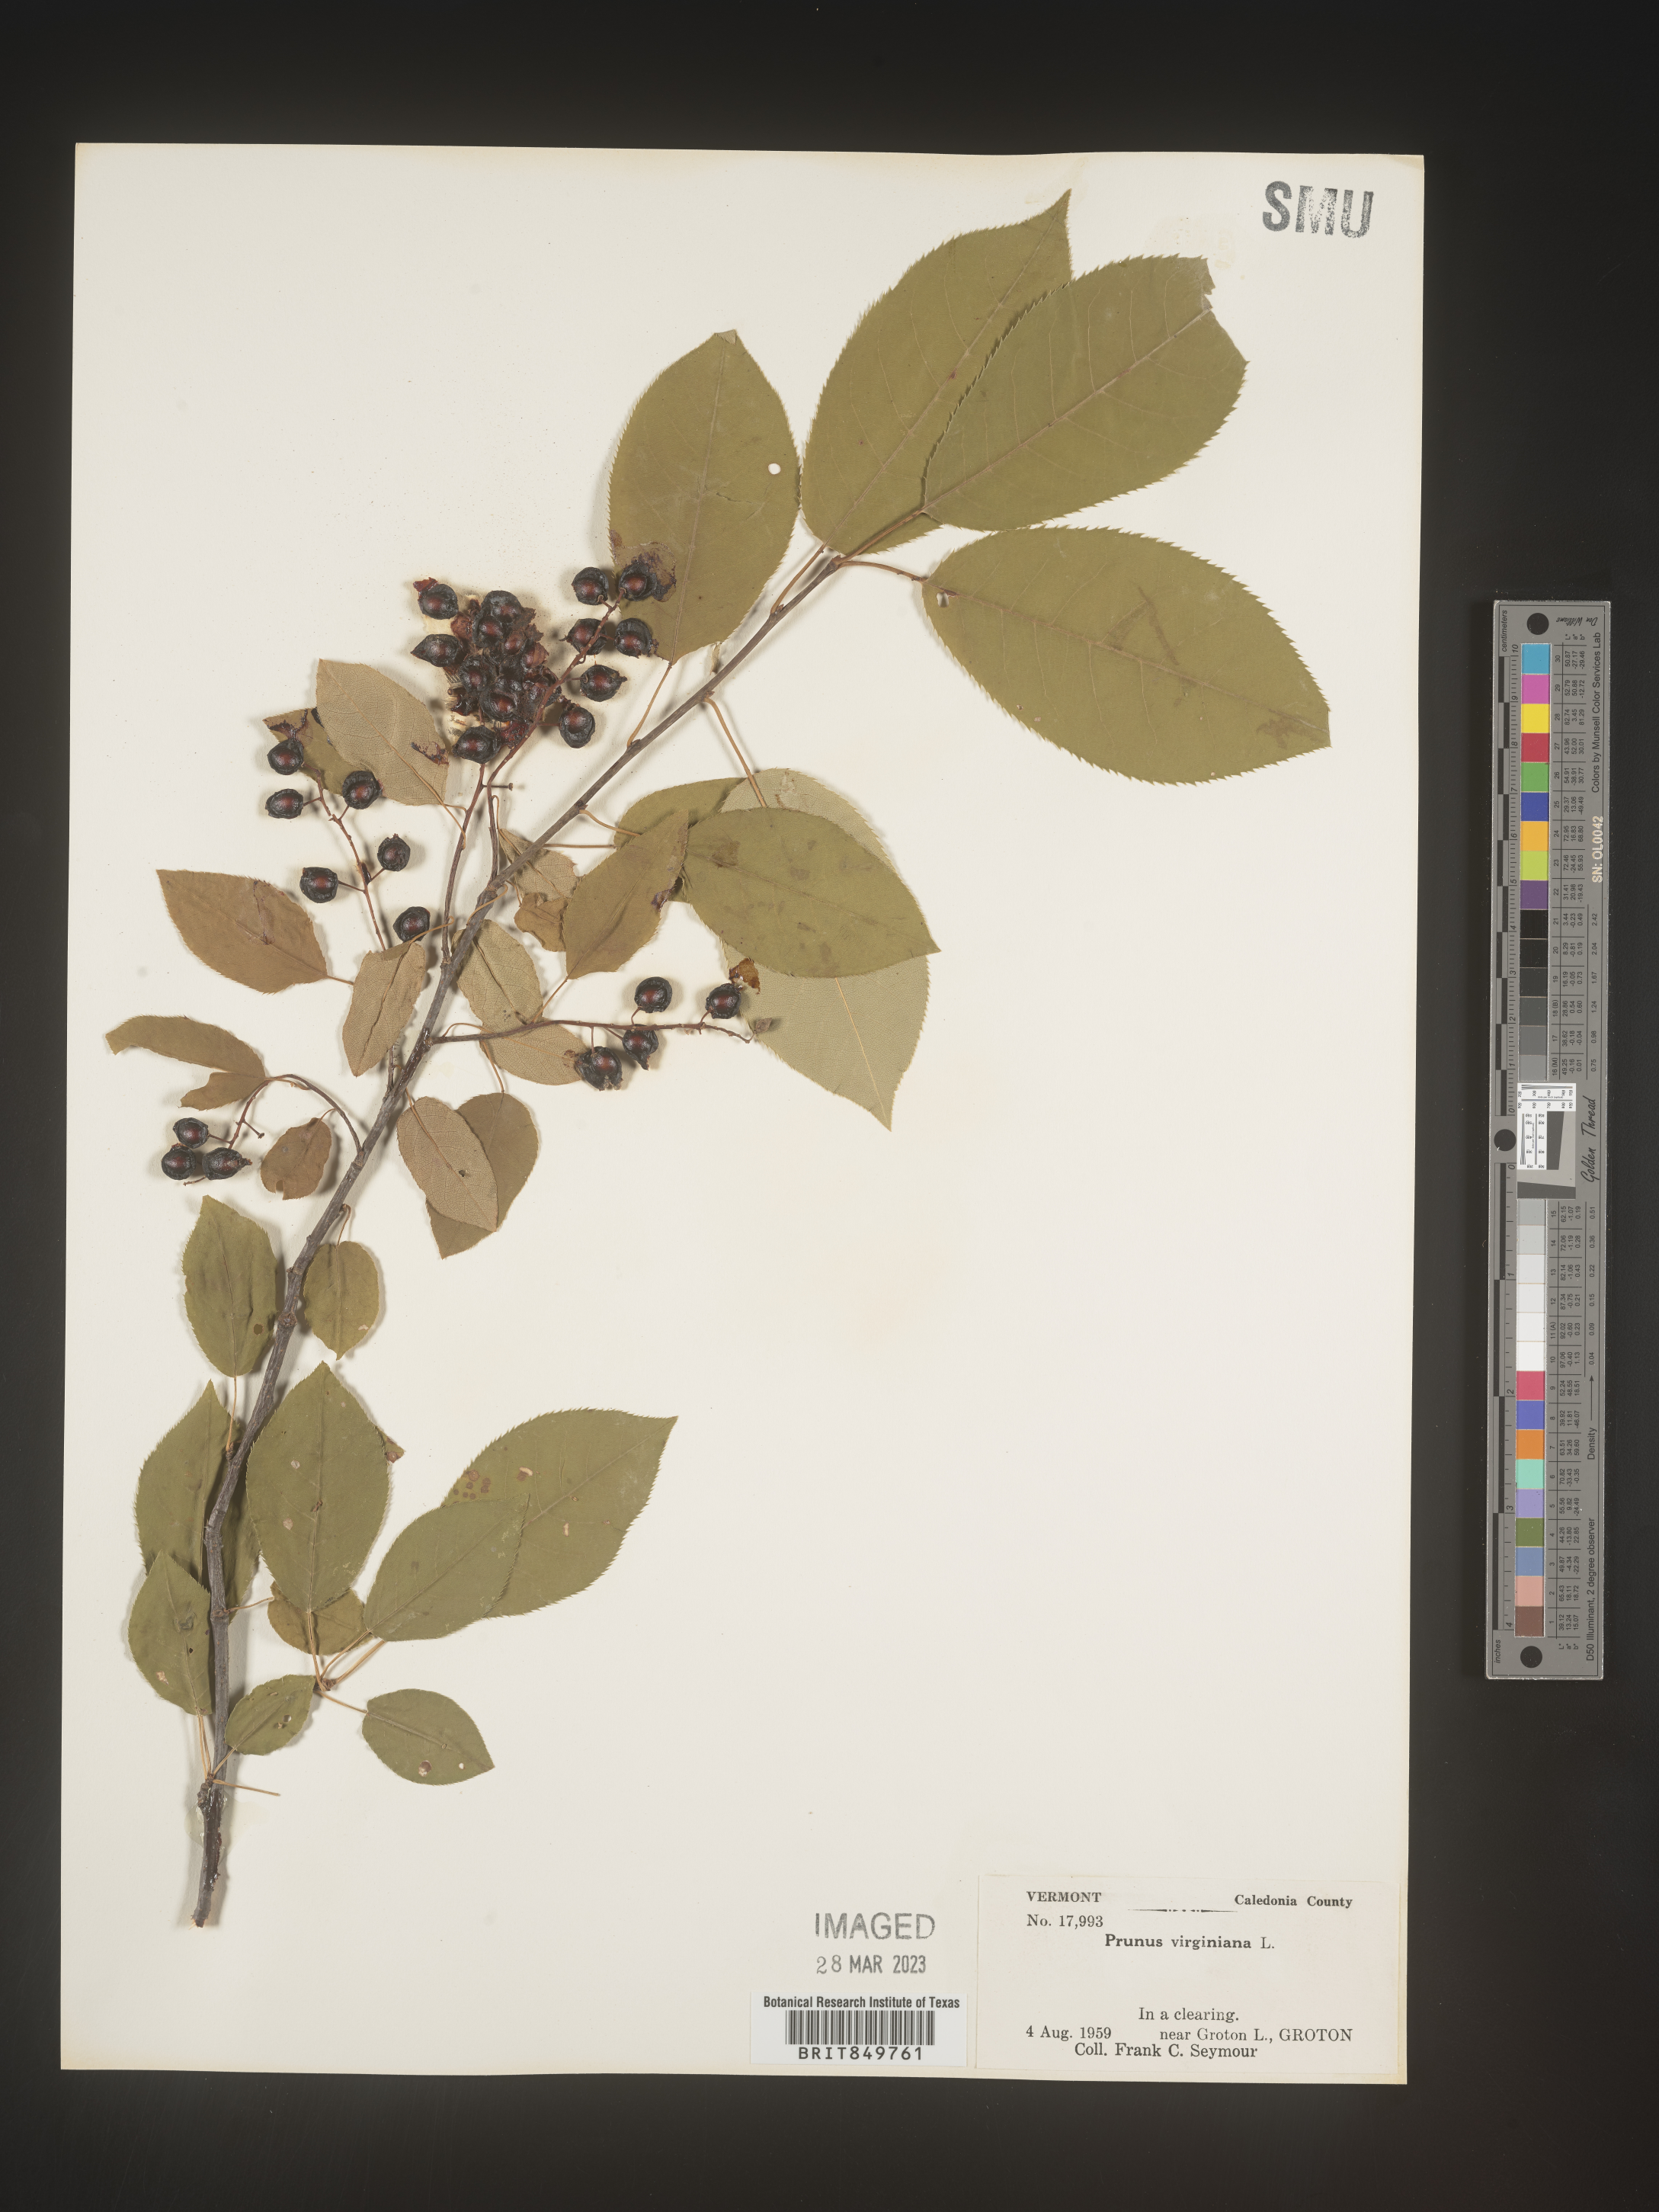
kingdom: Plantae
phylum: Tracheophyta
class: Magnoliopsida
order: Rosales
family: Rosaceae
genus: Prunus
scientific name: Prunus virginiana
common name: Chokecherry
